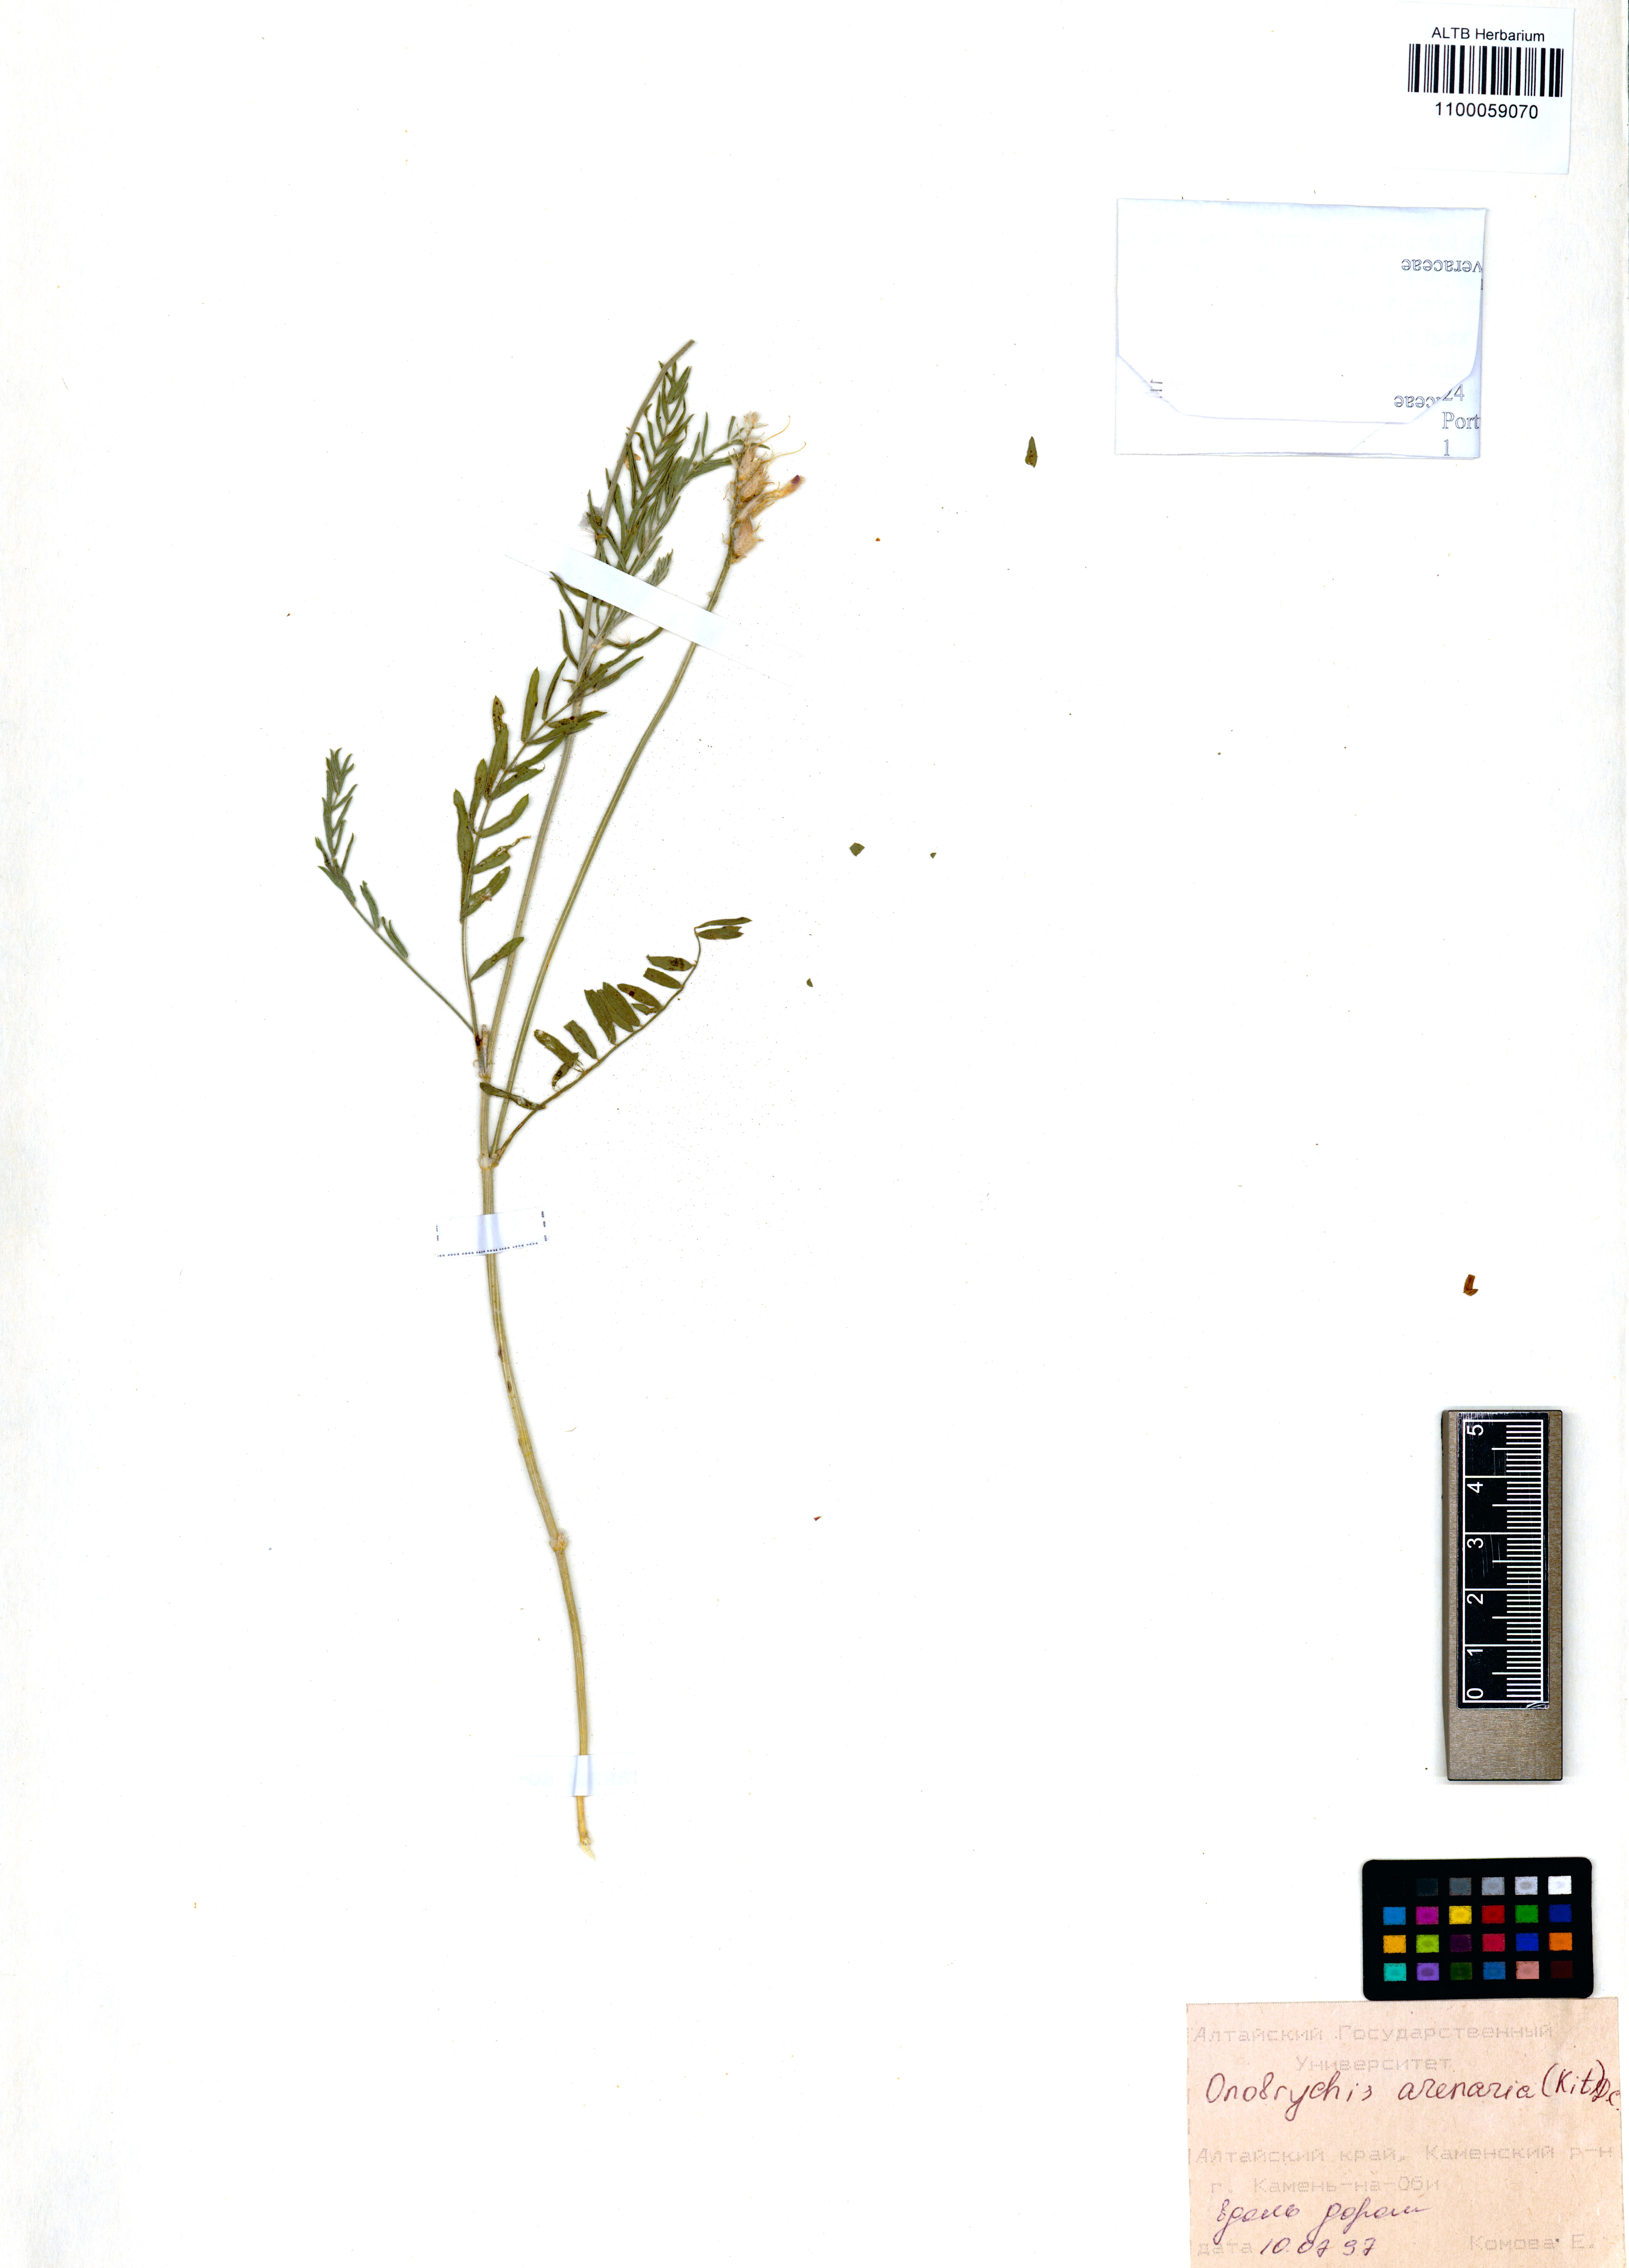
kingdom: Plantae
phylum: Tracheophyta
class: Magnoliopsida
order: Fabales
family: Fabaceae
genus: Onobrychis
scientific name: Onobrychis arenaria
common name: Sand esparcet
